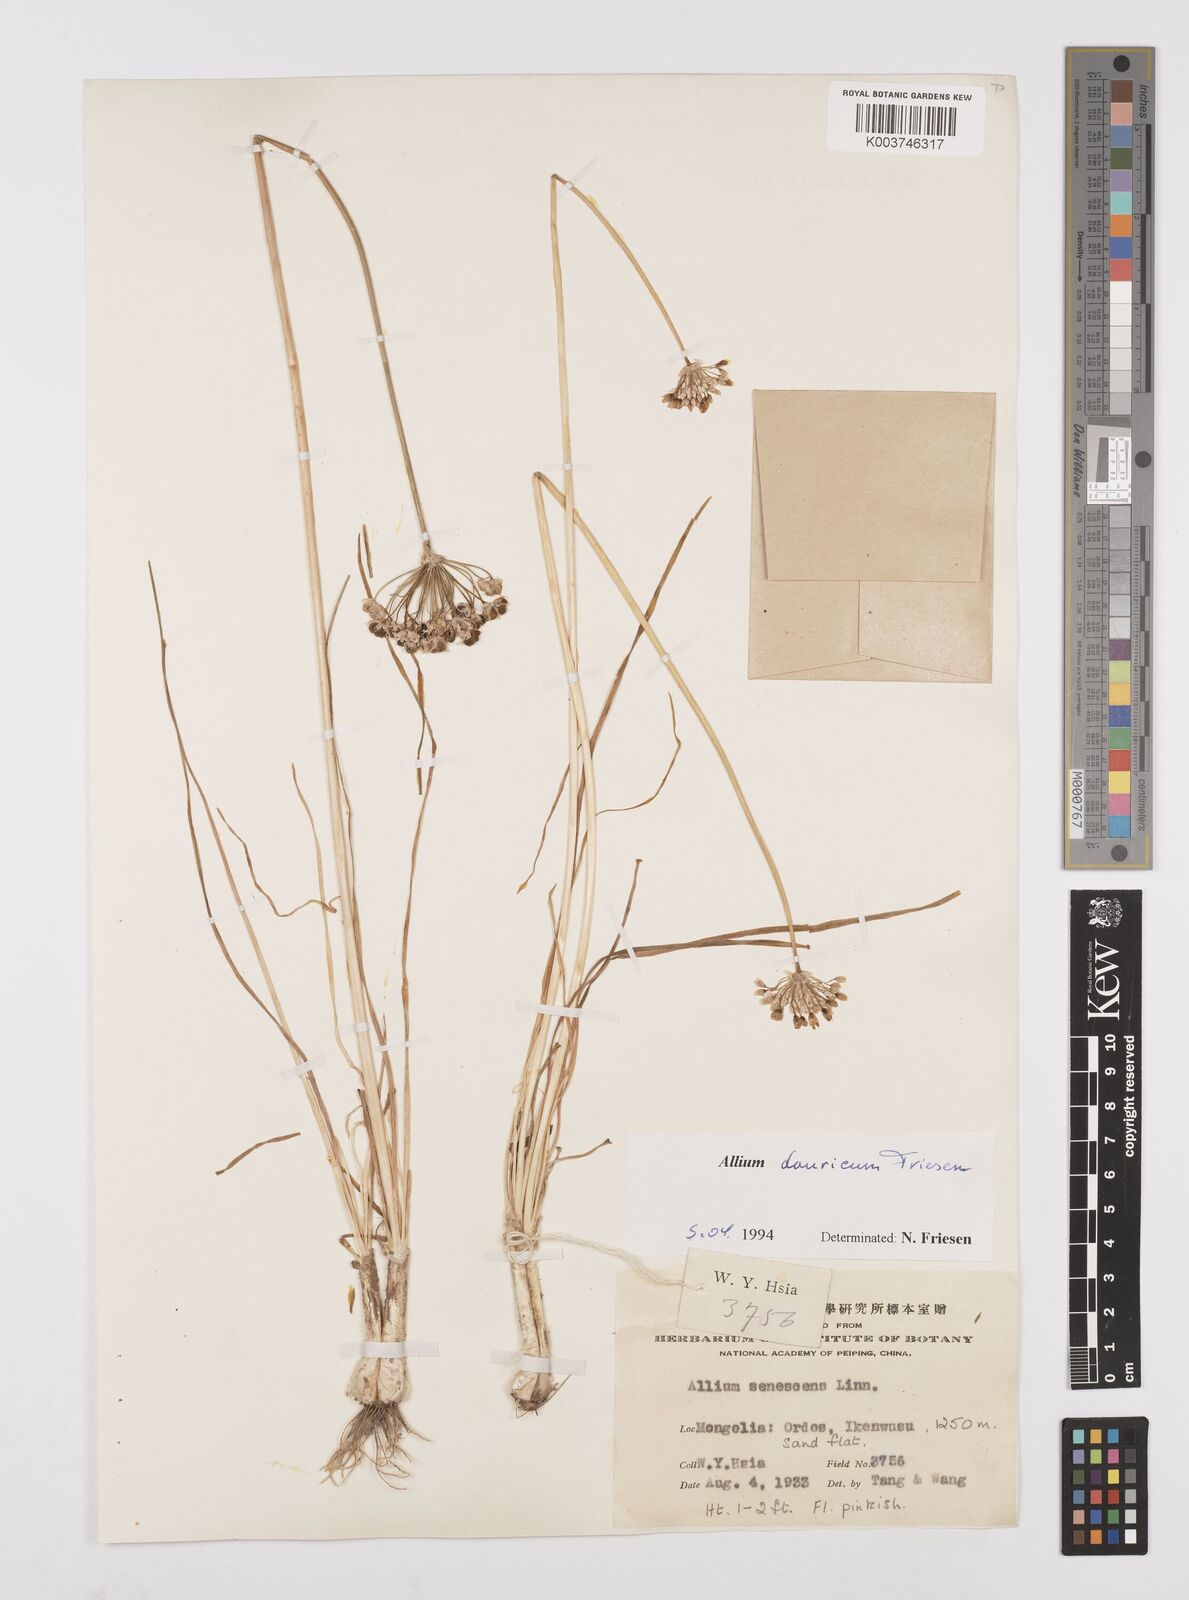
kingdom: Plantae
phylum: Tracheophyta
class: Liliopsida
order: Asparagales
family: Amaryllidaceae
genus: Allium
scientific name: Allium spurium
